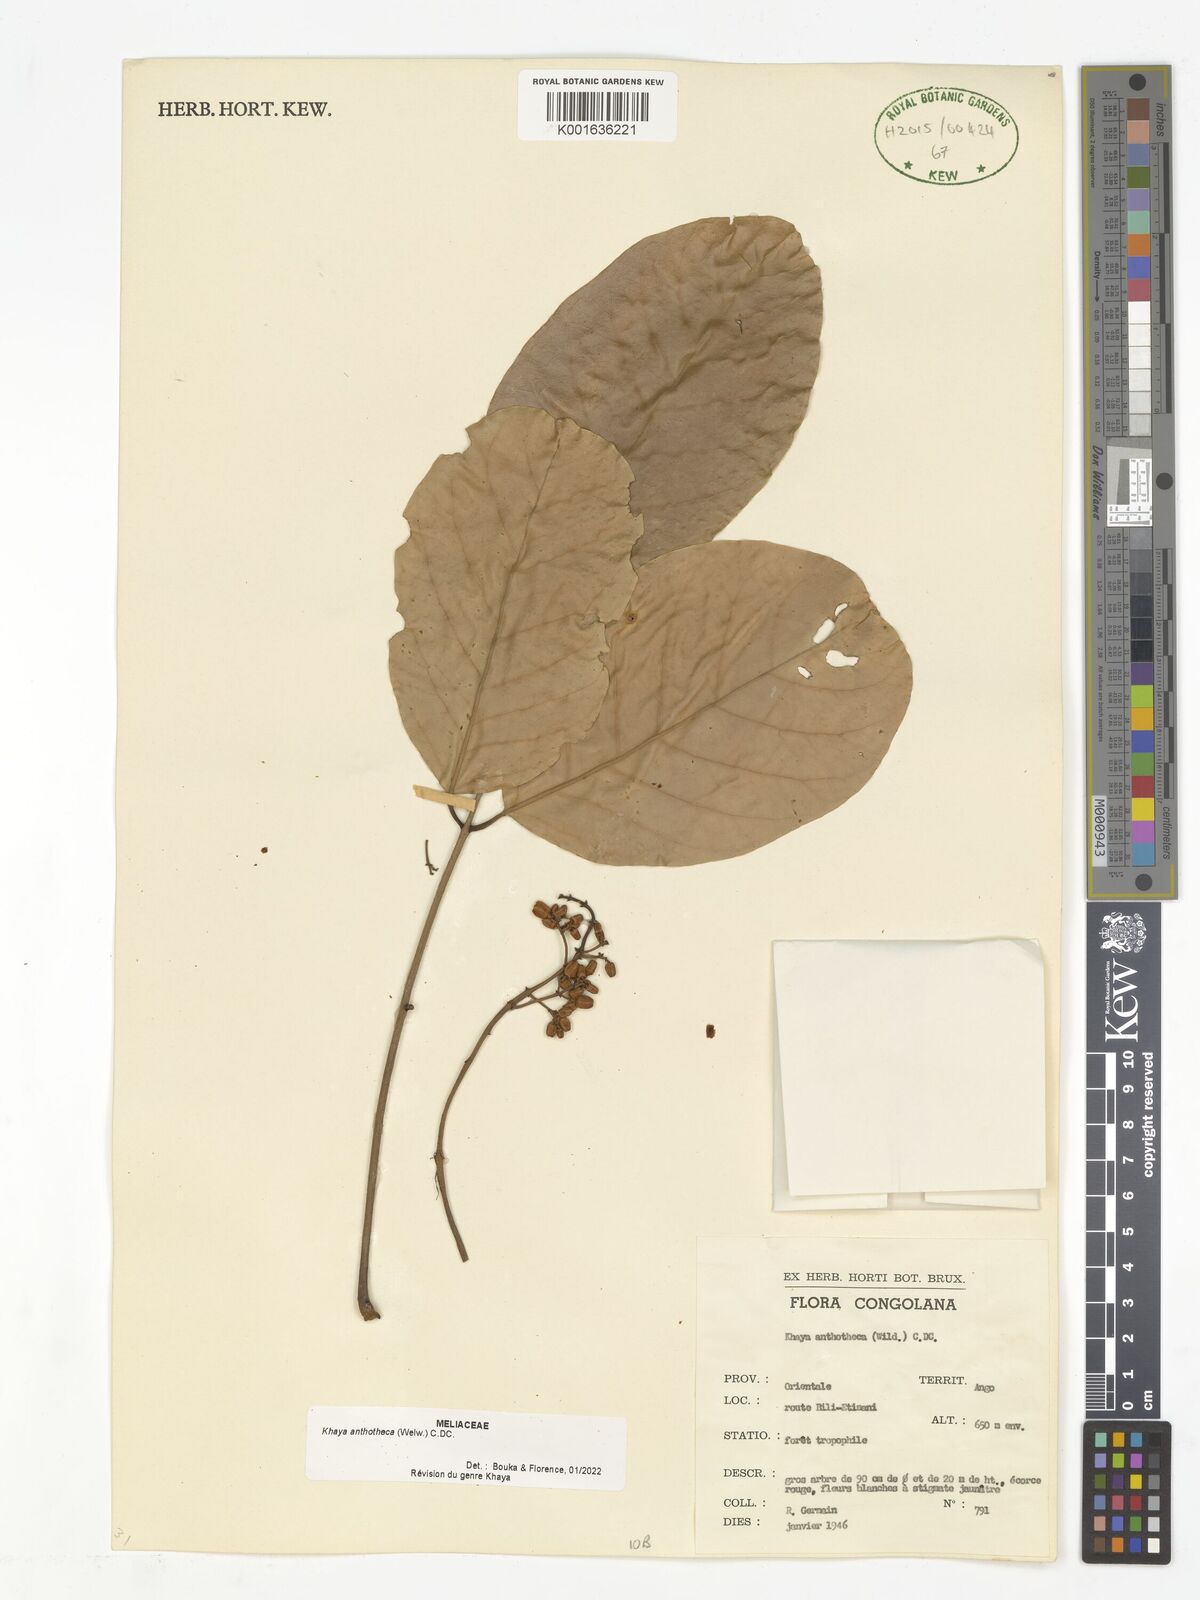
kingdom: Plantae
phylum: Tracheophyta
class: Magnoliopsida
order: Sapindales
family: Meliaceae
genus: Khaya
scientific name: Khaya anthotheca
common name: Nyasaland mahogany
